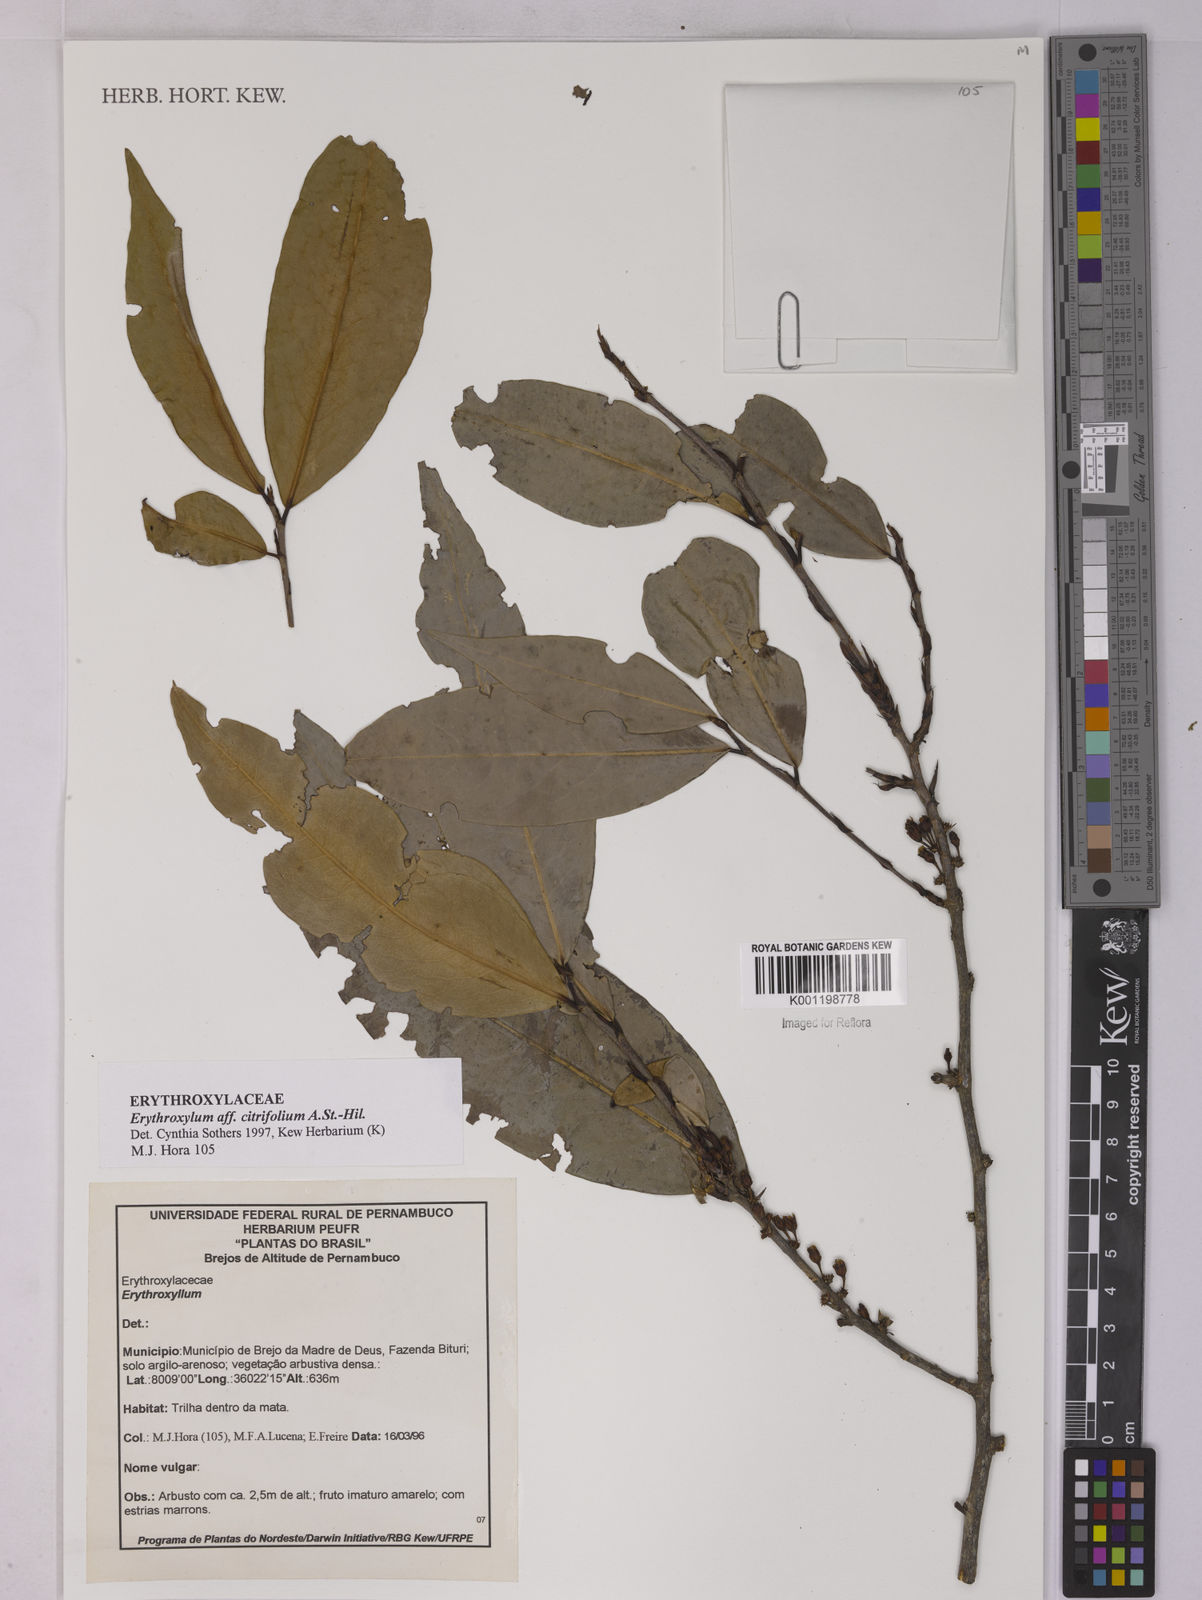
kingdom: Plantae
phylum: Tracheophyta
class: Magnoliopsida
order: Malpighiales
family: Erythroxylaceae
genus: Erythroxylum
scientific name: Erythroxylum citrifolium
